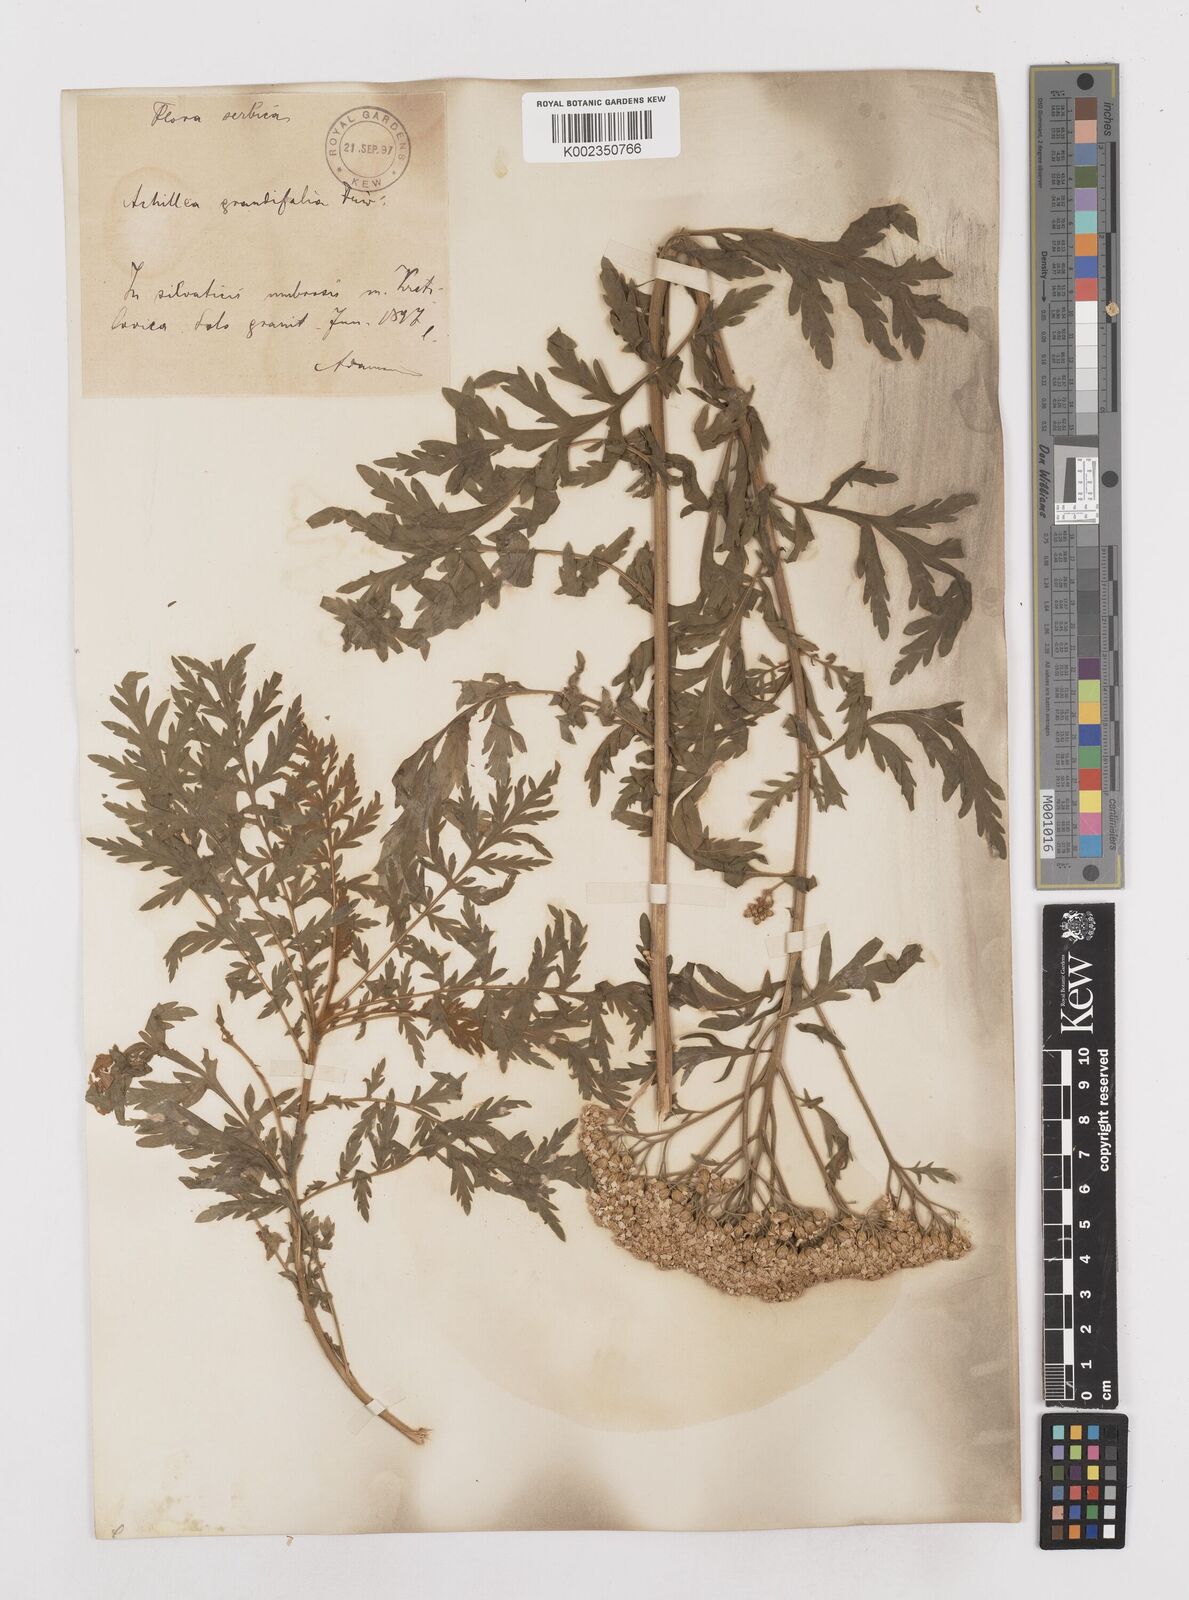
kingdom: Plantae
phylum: Tracheophyta
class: Magnoliopsida
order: Asterales
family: Asteraceae
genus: Achillea
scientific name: Achillea grandifolia
